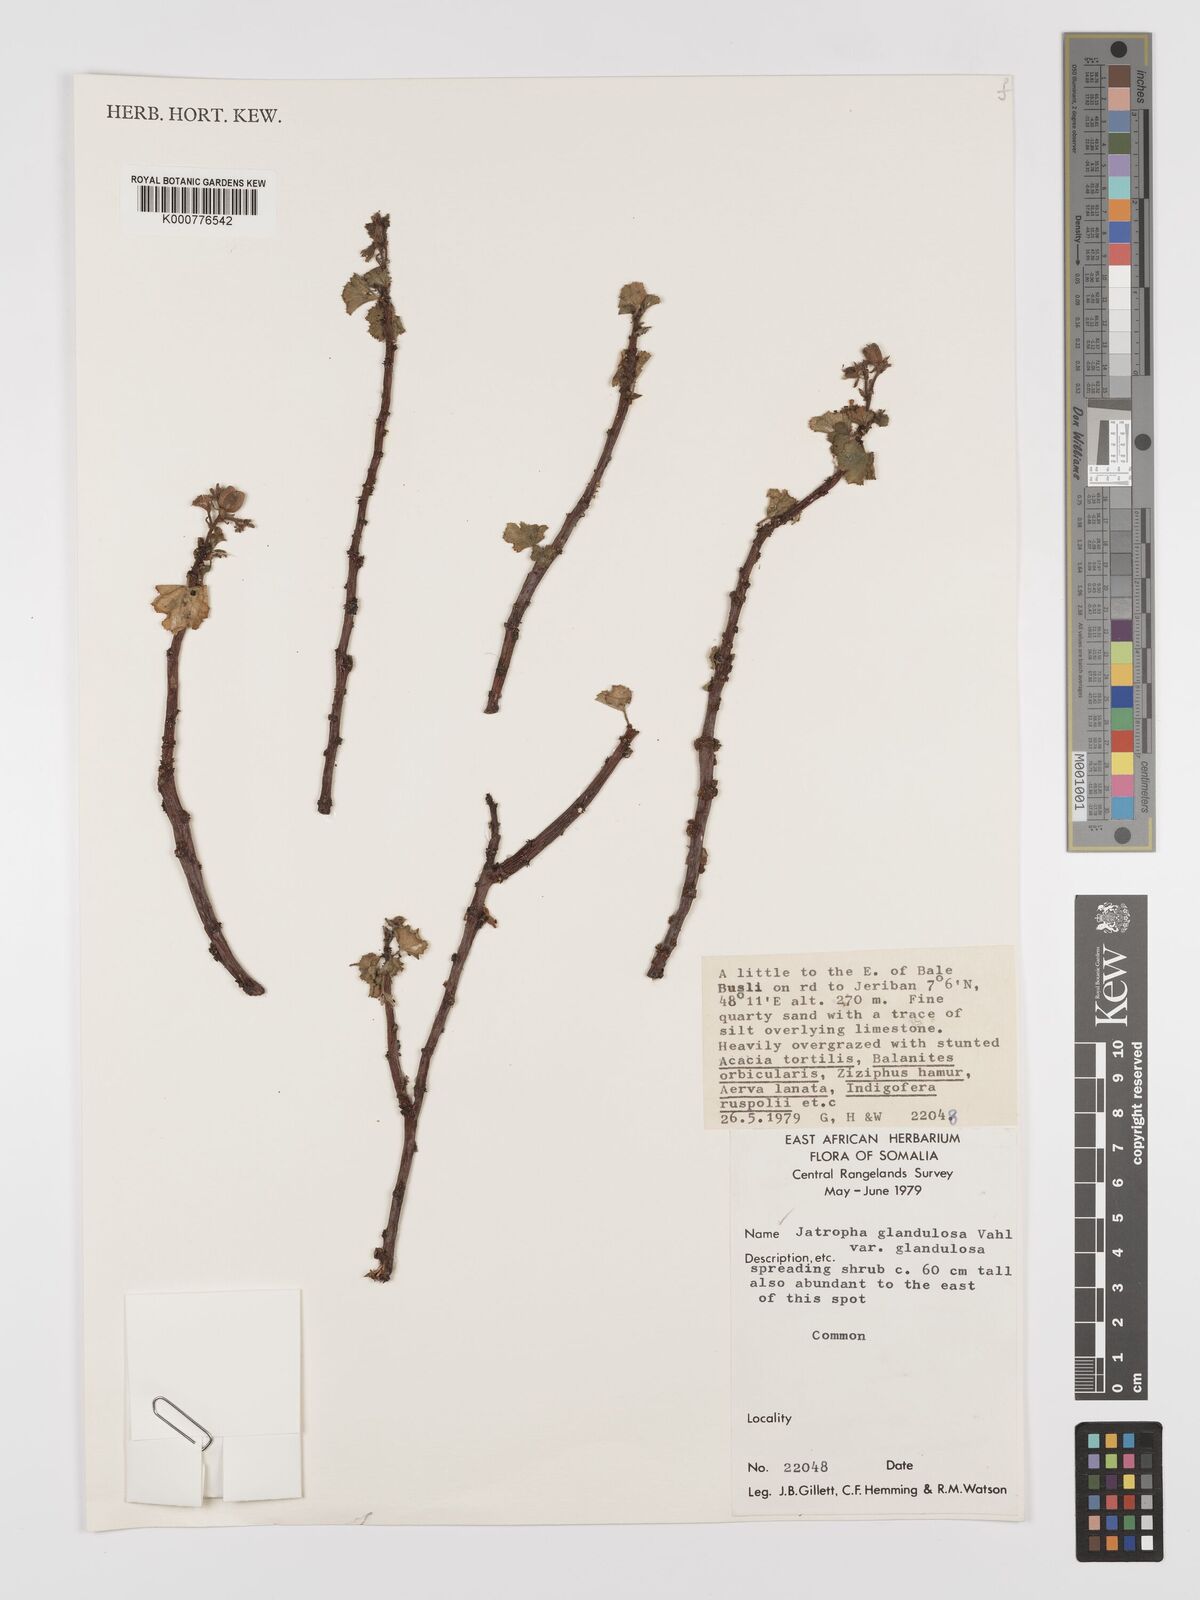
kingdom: Plantae
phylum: Tracheophyta
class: Magnoliopsida
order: Malpighiales
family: Euphorbiaceae
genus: Jatropha
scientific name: Jatropha pelargoniifolia
